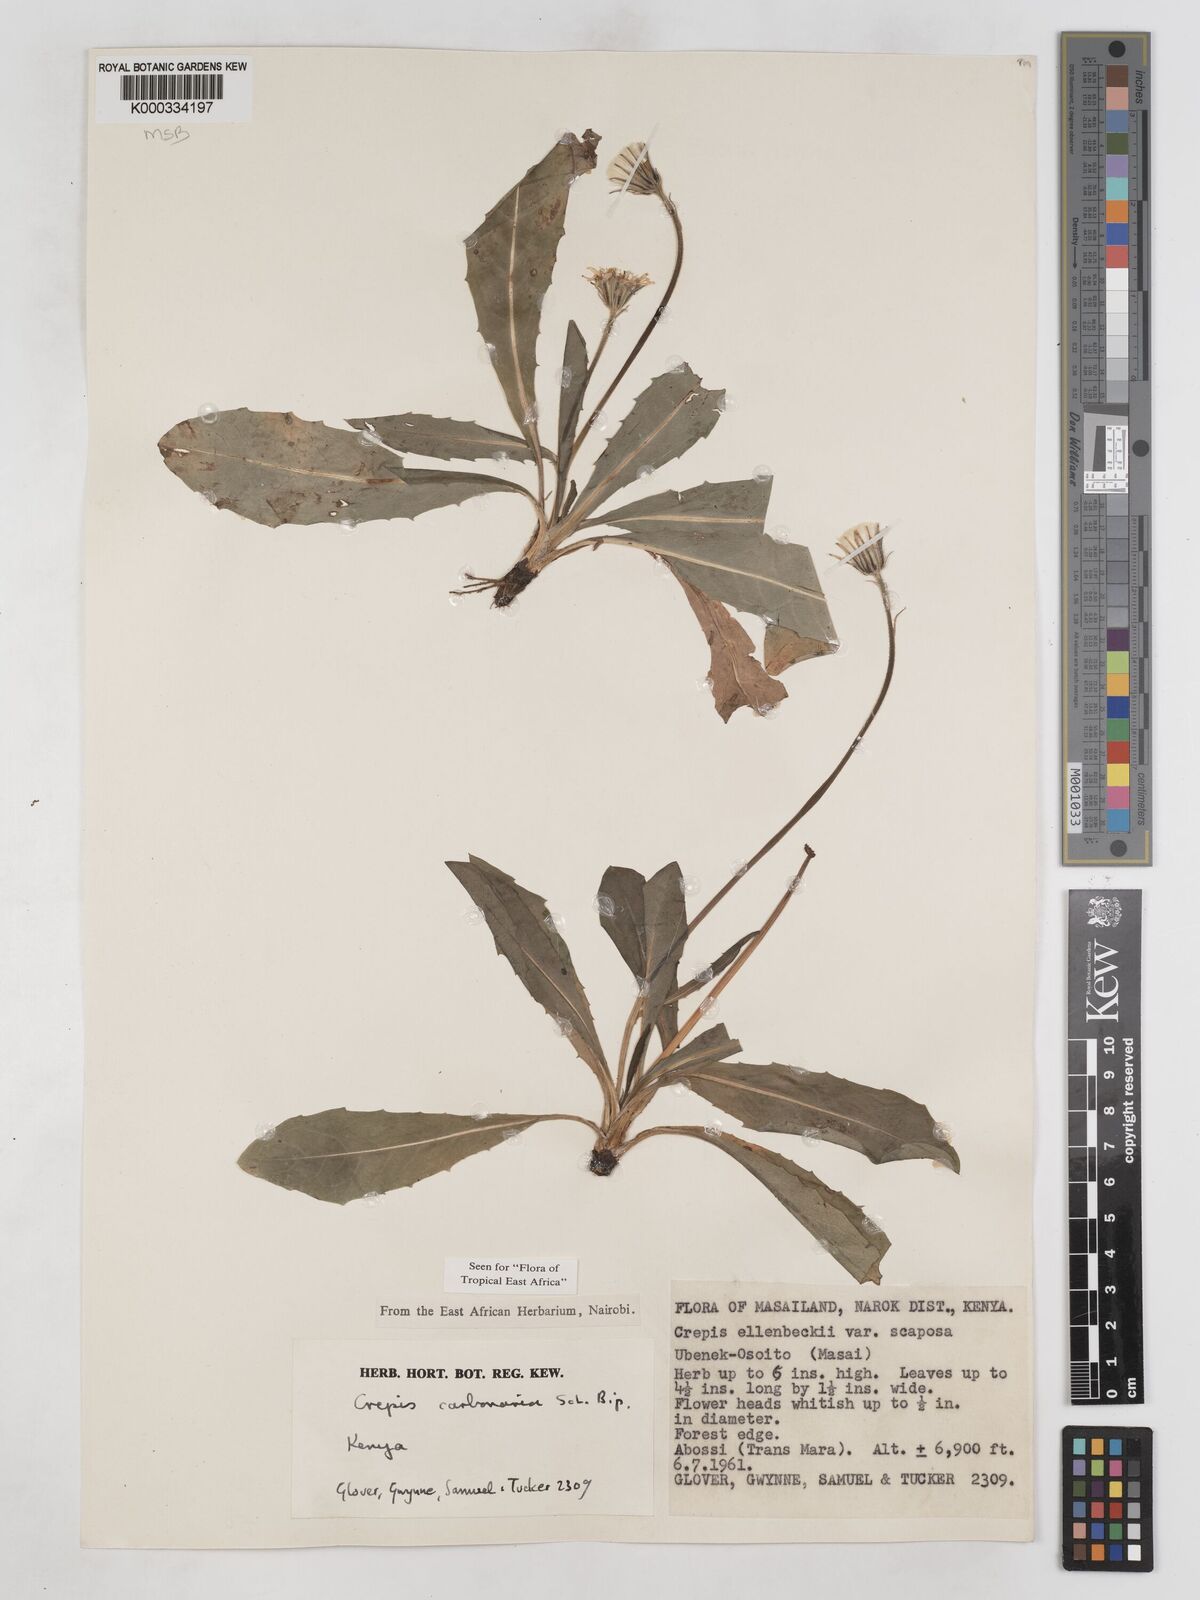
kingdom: Plantae
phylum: Tracheophyta
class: Magnoliopsida
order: Asterales
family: Asteraceae
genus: Crepis
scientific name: Crepis carbonaria
